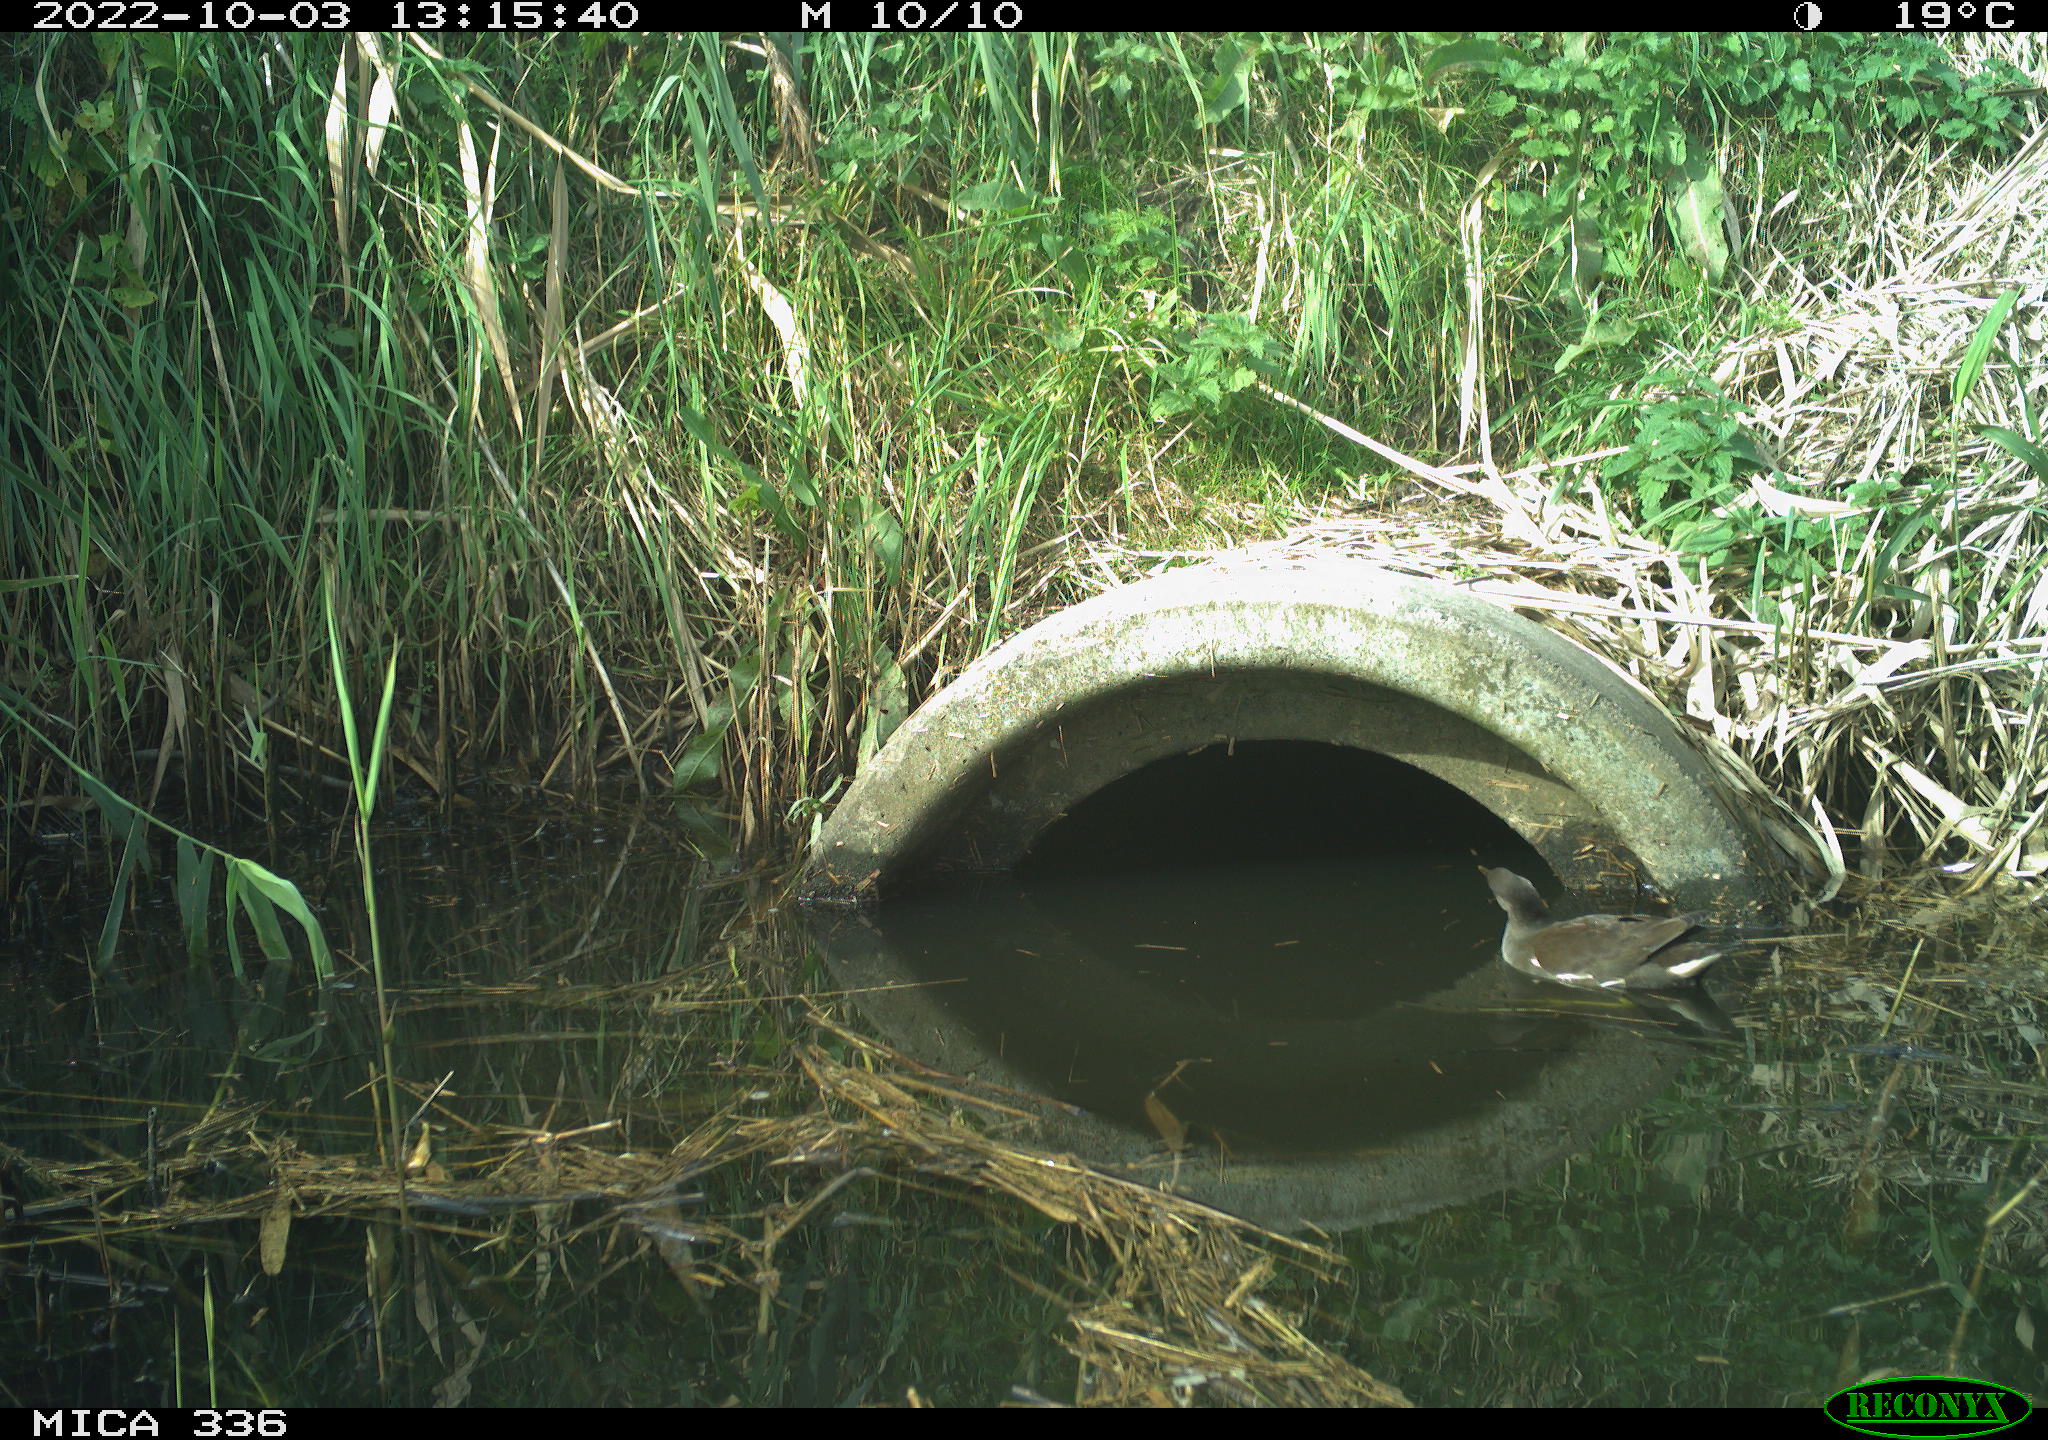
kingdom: Animalia
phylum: Chordata
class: Aves
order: Gruiformes
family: Rallidae
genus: Gallinula
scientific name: Gallinula chloropus
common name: Common moorhen
